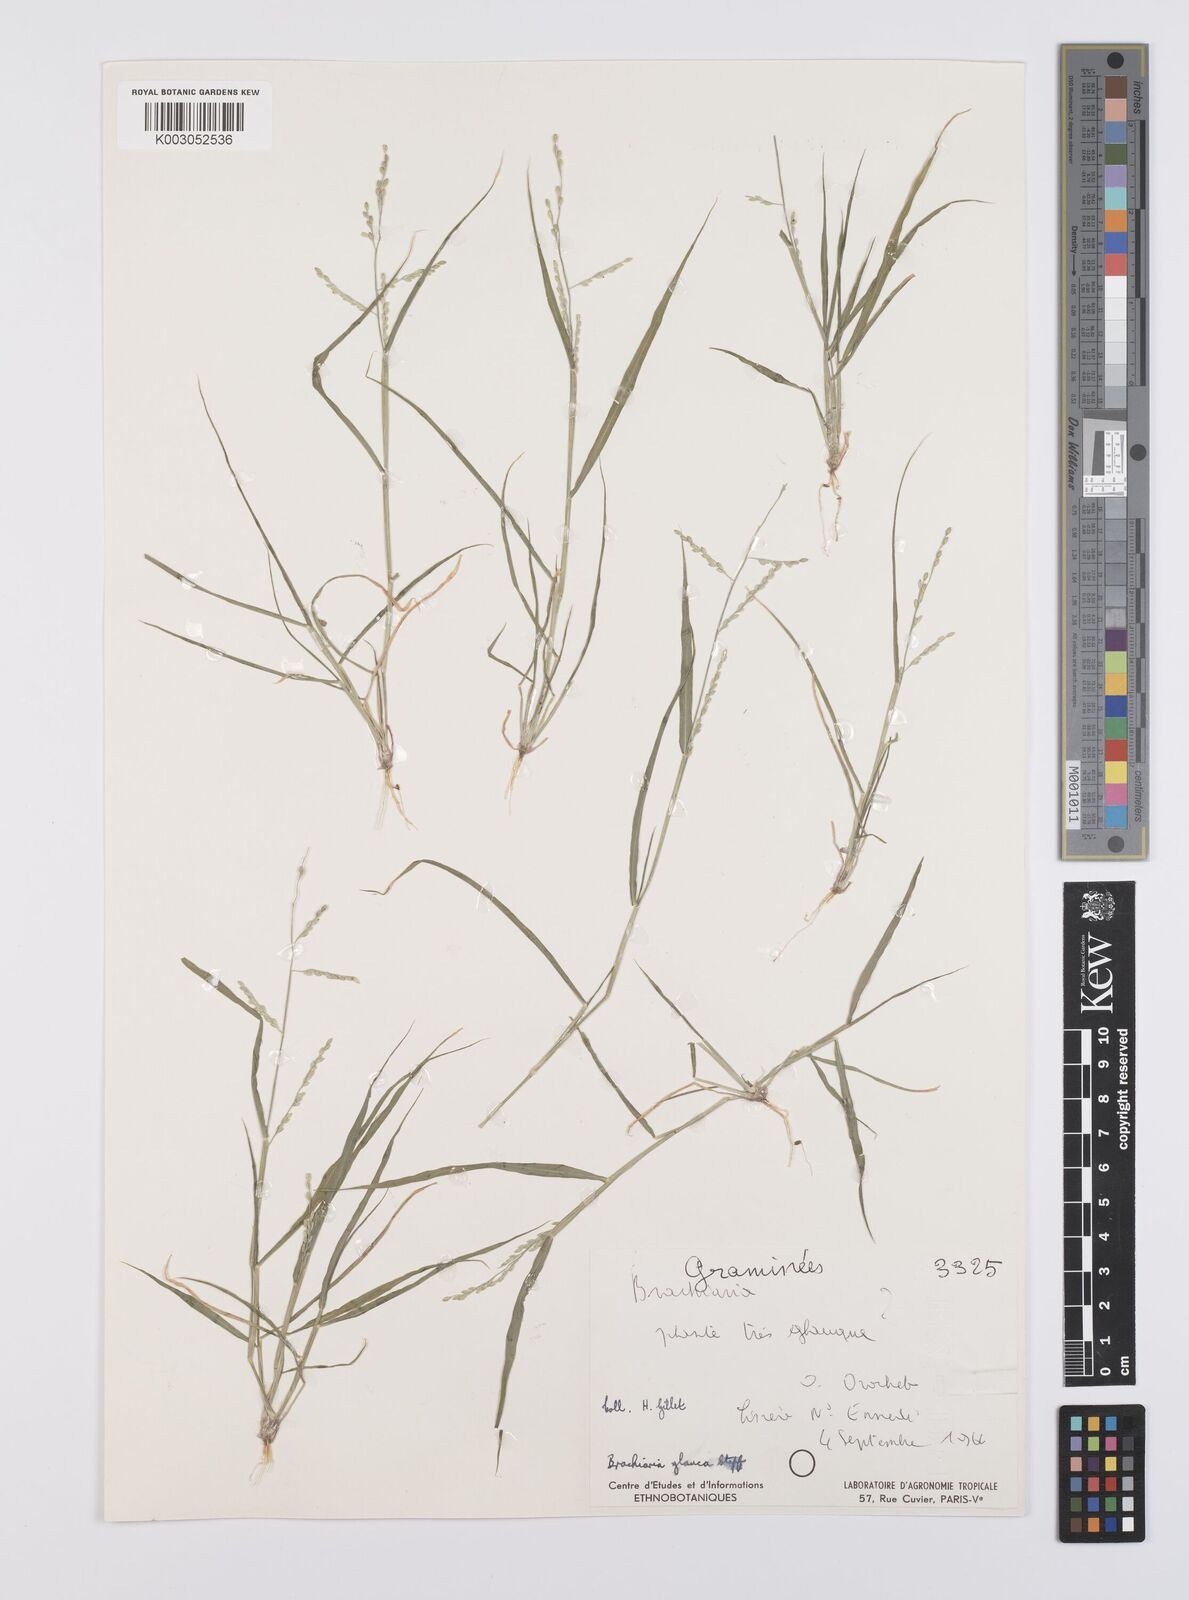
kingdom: Plantae
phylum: Tracheophyta
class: Liliopsida
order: Poales
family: Poaceae
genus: Urochloa
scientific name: Urochloa leersioides
